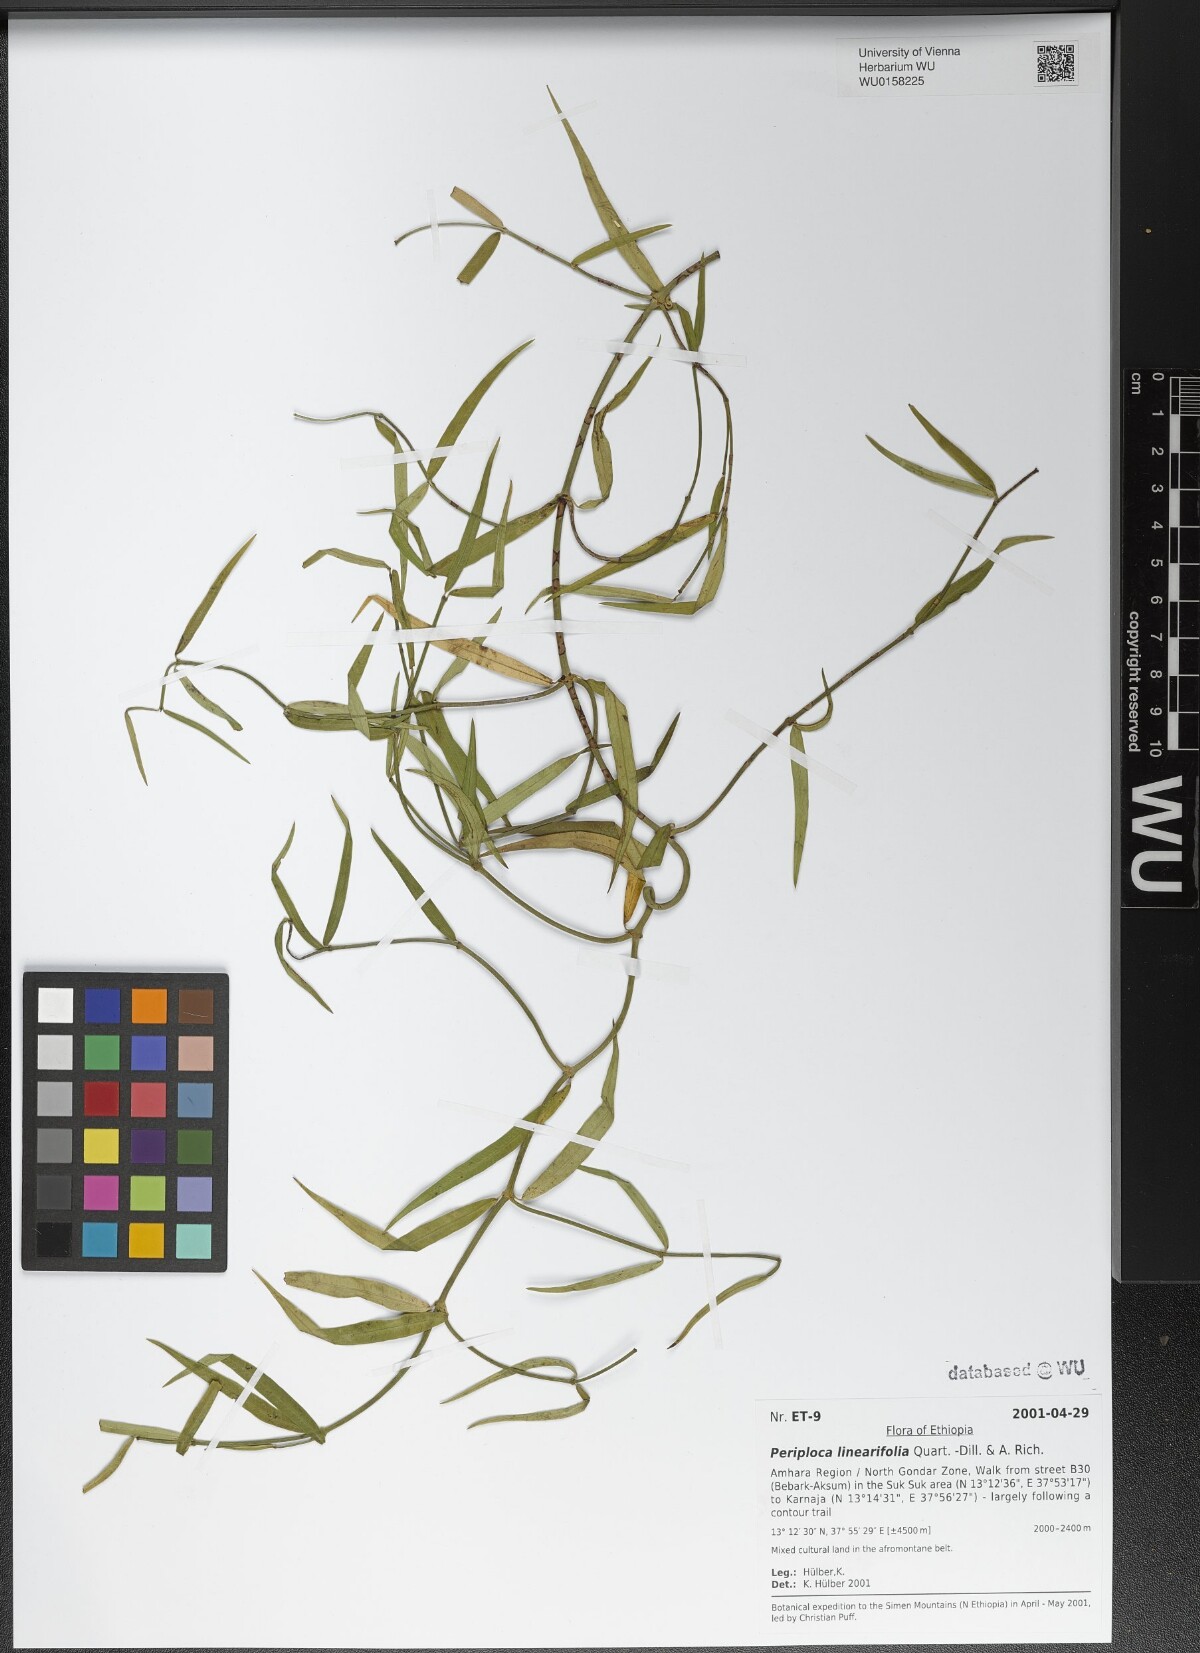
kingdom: Plantae
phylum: Tracheophyta
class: Magnoliopsida
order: Gentianales
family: Apocynaceae
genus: Periploca
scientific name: Periploca linearifolia
